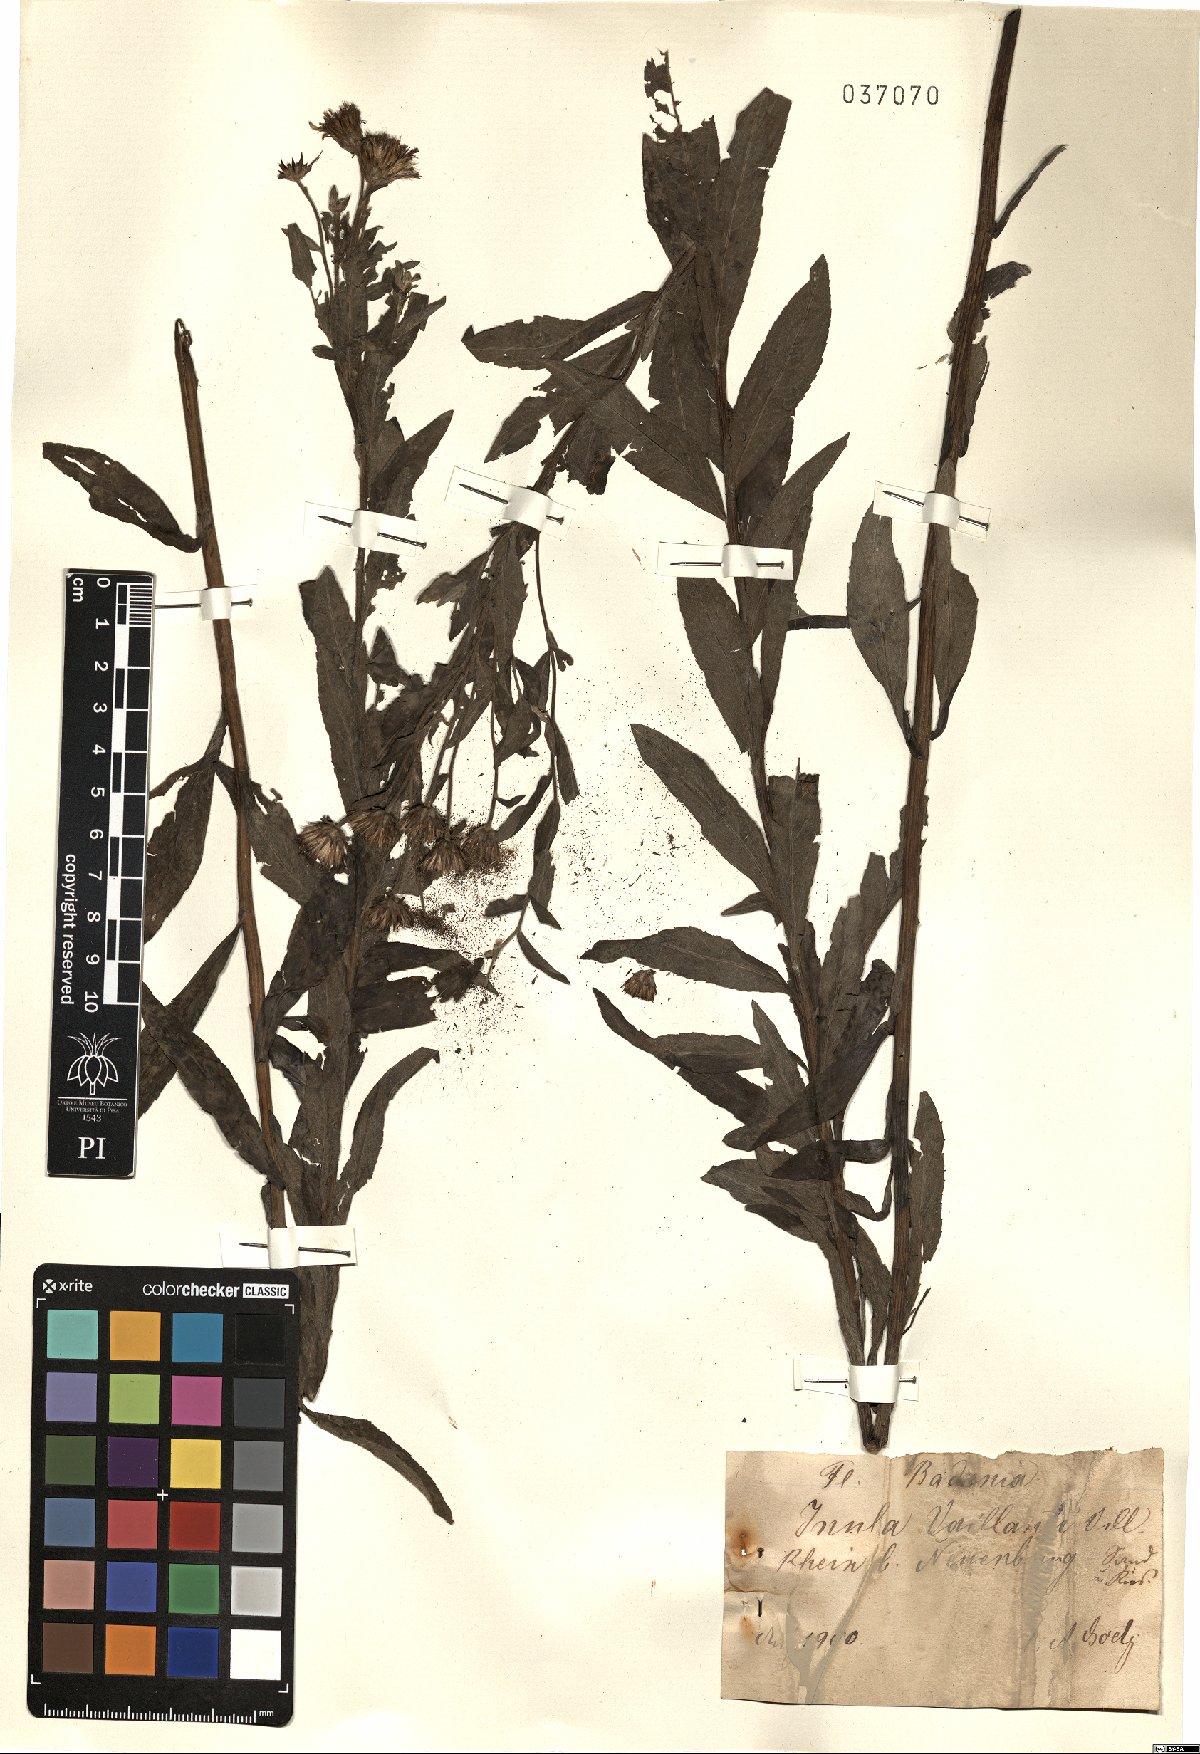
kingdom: Plantae
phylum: Tracheophyta
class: Magnoliopsida
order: Asterales
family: Asteraceae
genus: Pentanema
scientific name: Pentanema helveticum
